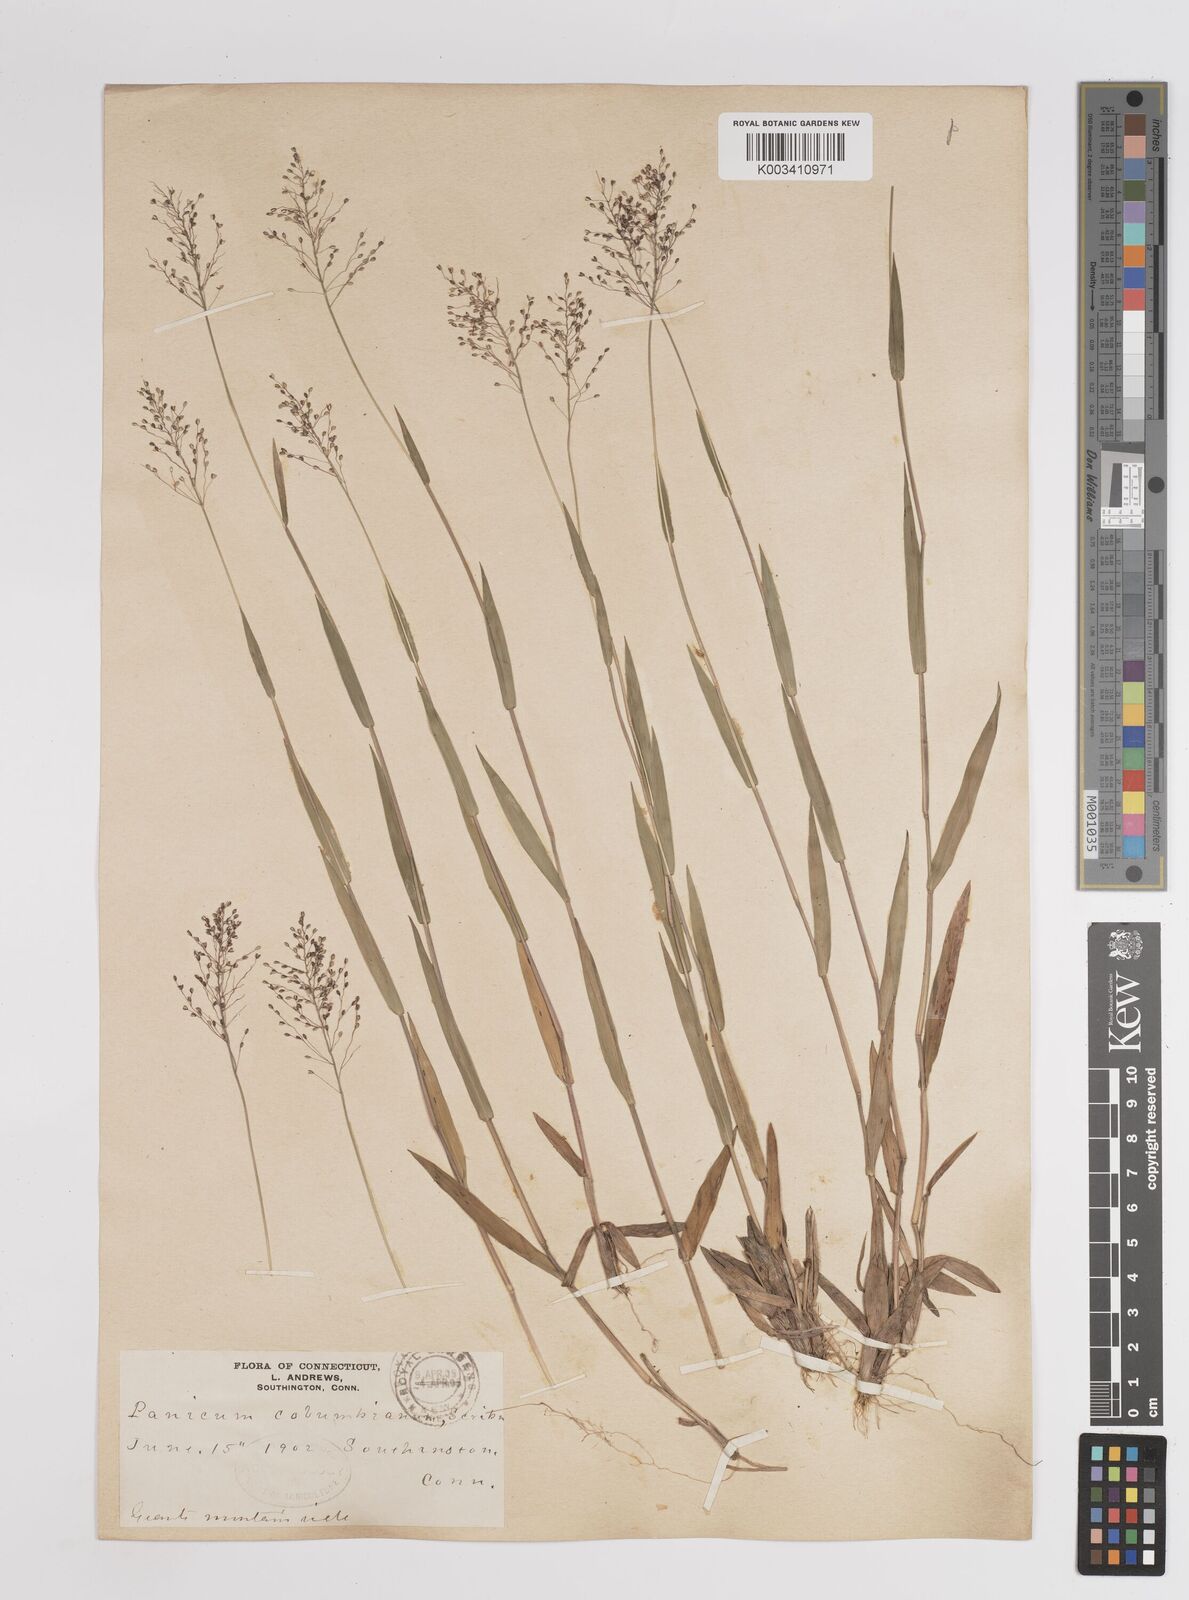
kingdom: Plantae
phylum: Tracheophyta
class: Liliopsida
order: Poales
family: Poaceae
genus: Dichanthelium
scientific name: Dichanthelium columbianum
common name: Hemlock panic grass
